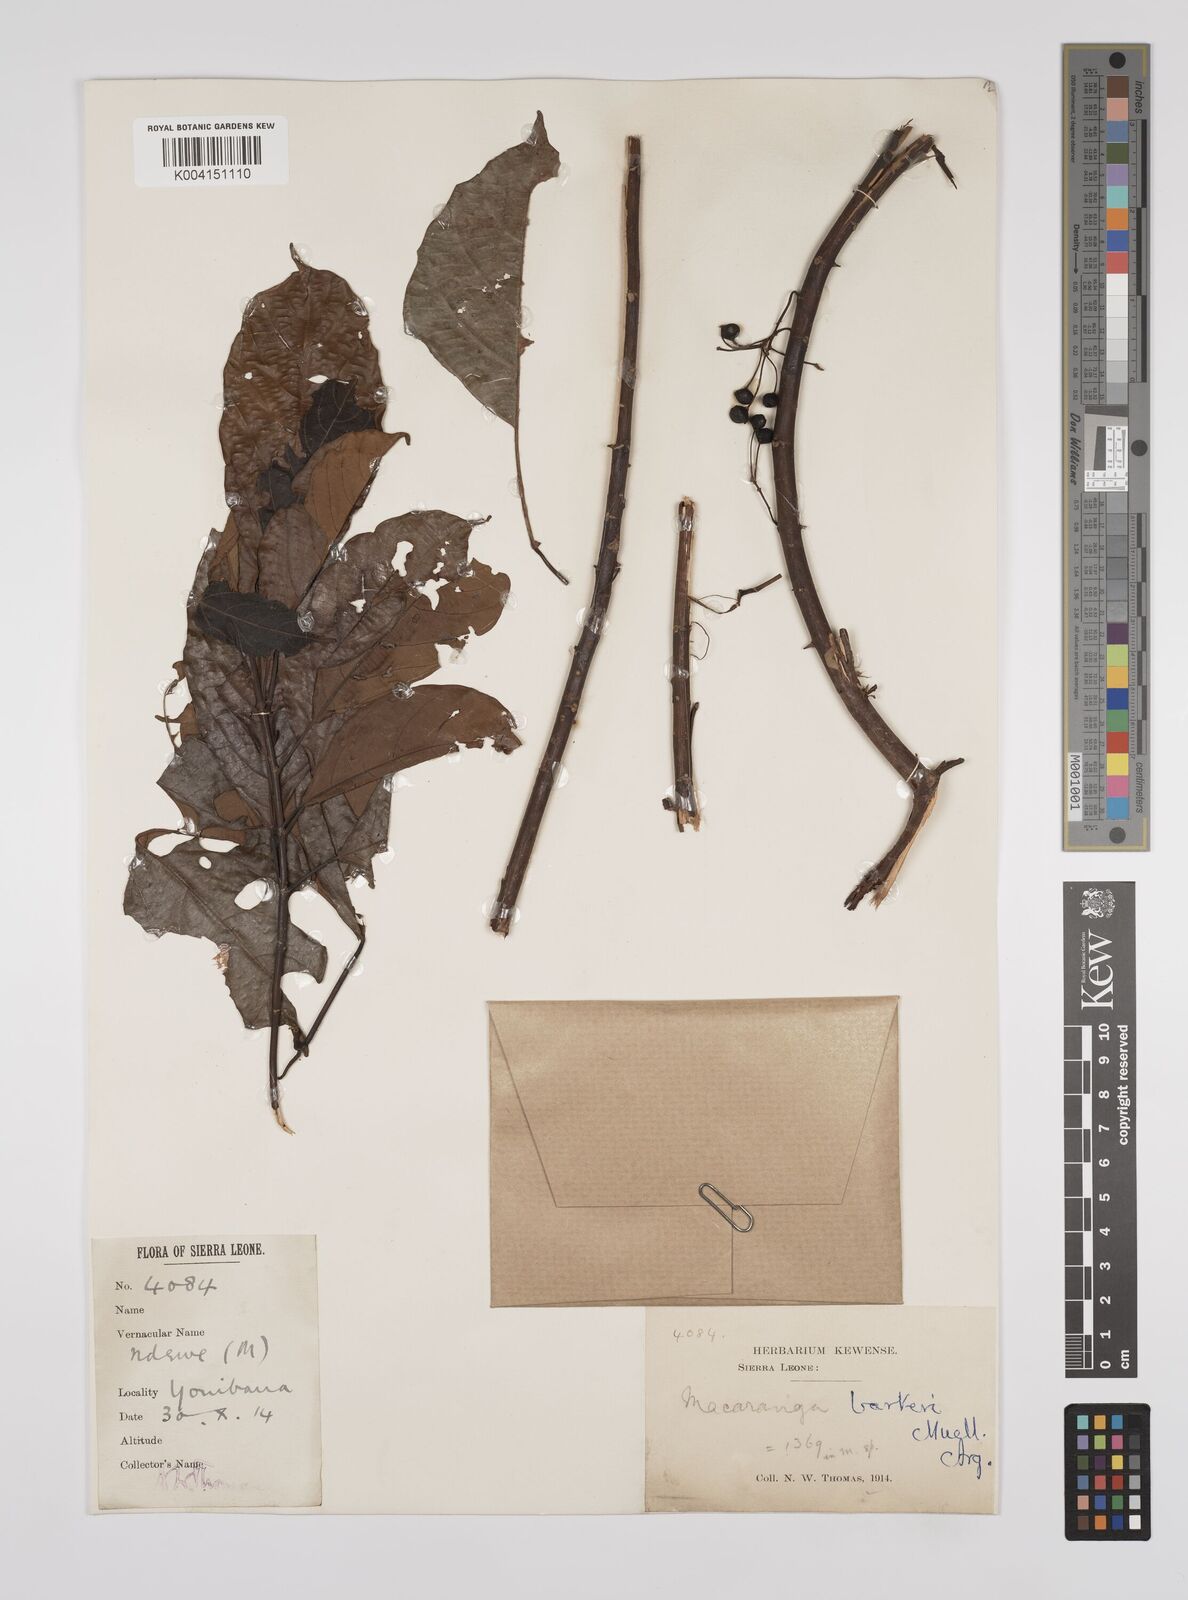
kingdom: Plantae
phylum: Tracheophyta
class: Magnoliopsida
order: Malpighiales
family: Euphorbiaceae
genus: Macaranga
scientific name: Macaranga barteri
